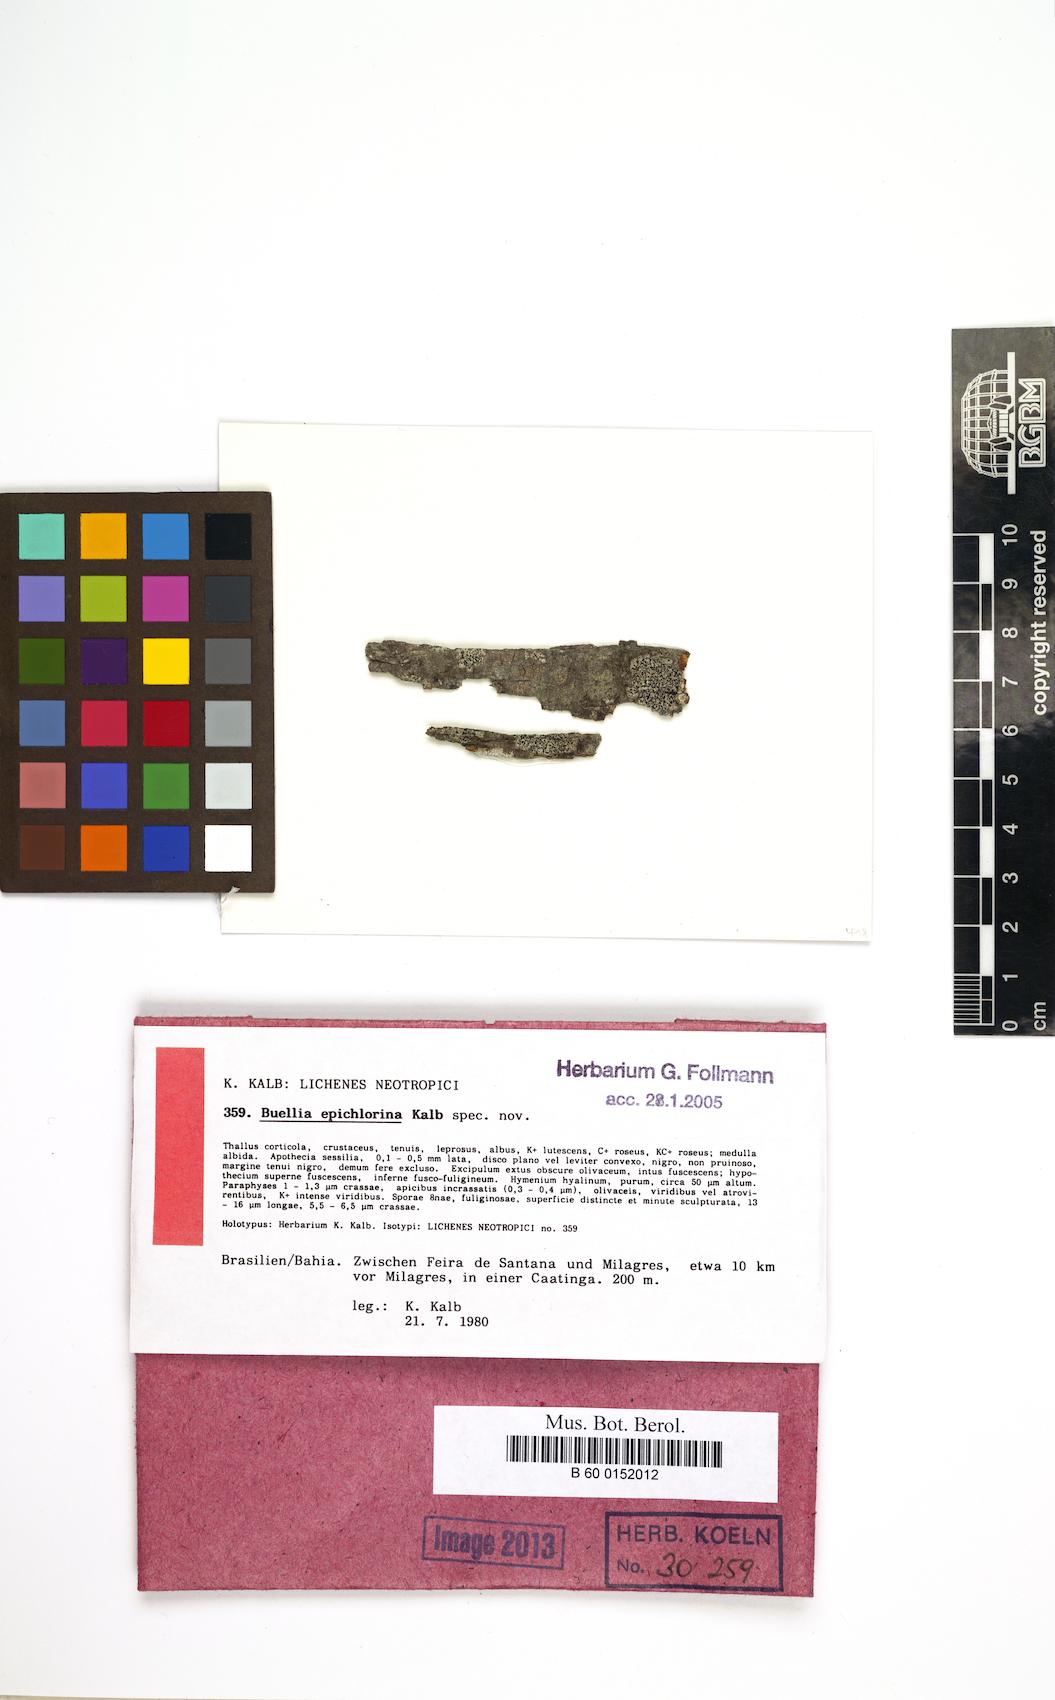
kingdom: Fungi
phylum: Ascomycota
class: Lecanoromycetes
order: Caliciales
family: Caliciaceae
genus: Buellia
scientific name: Buellia epichlorina
